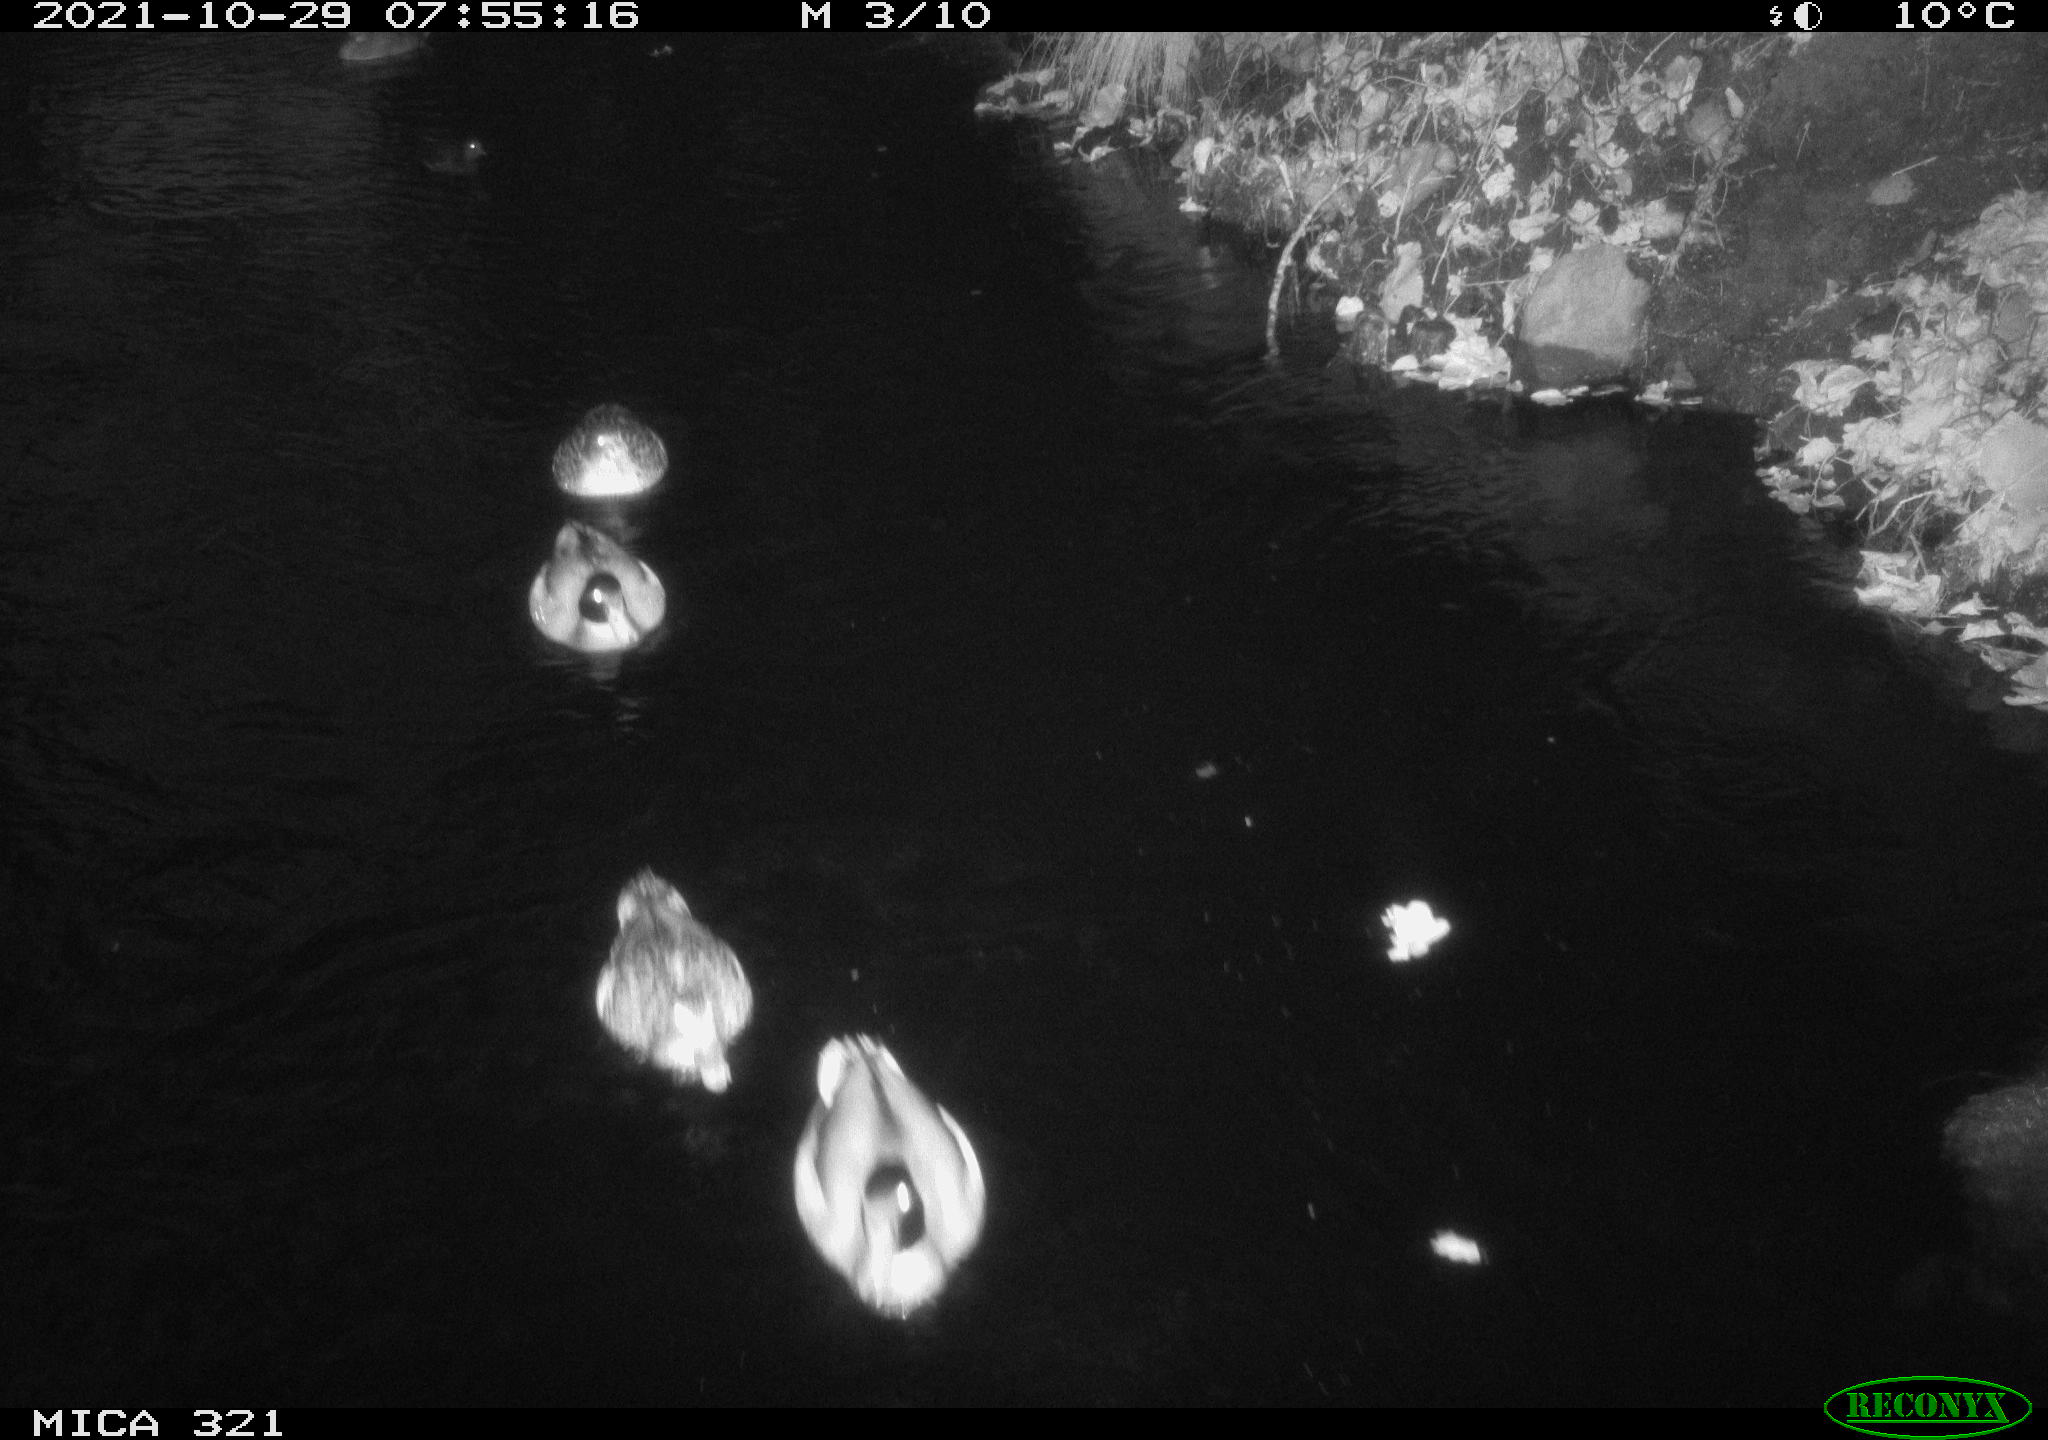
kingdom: Animalia
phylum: Chordata
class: Aves
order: Gruiformes
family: Rallidae
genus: Fulica
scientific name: Fulica atra
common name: Eurasian coot
